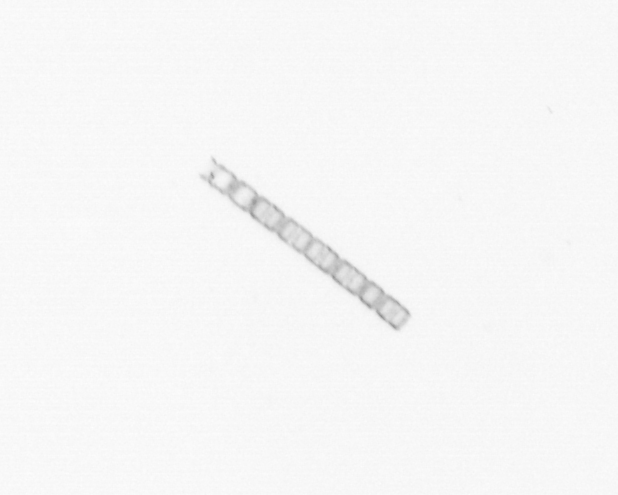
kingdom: Chromista
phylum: Ochrophyta
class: Bacillariophyceae
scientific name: Bacillariophyceae
